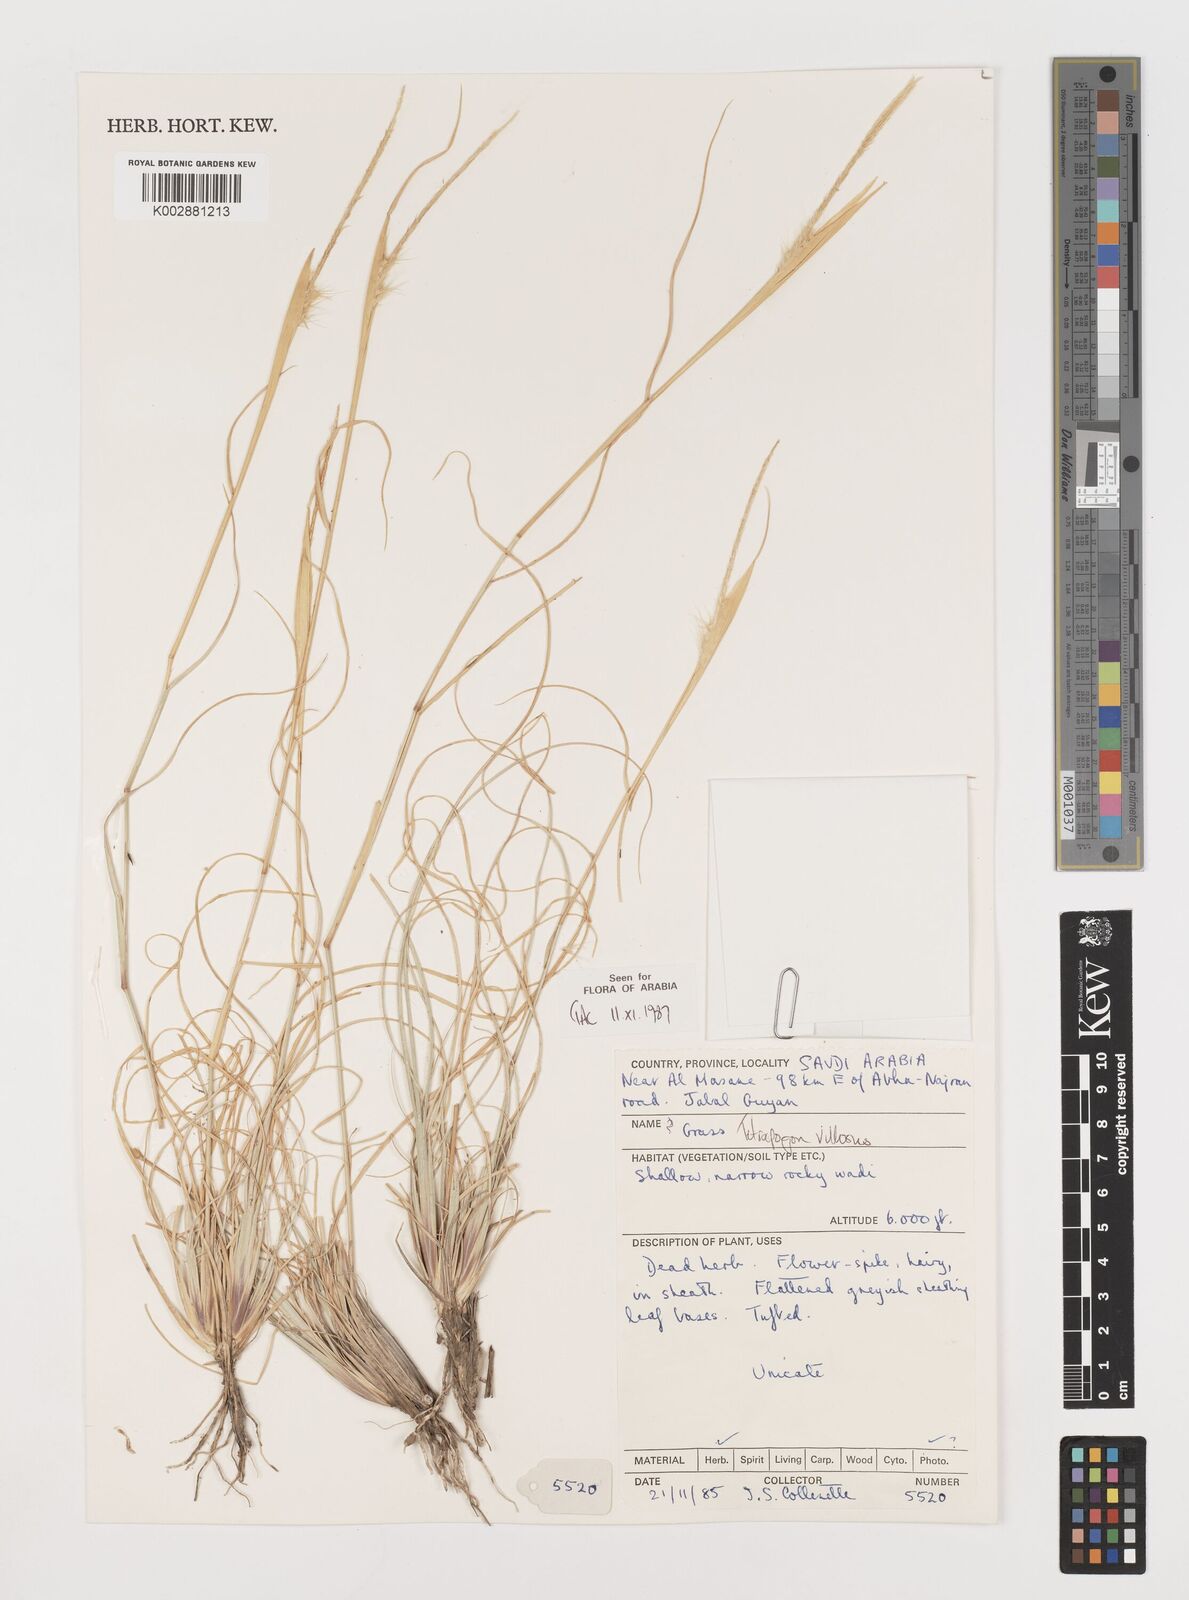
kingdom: Plantae
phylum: Tracheophyta
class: Liliopsida
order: Poales
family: Poaceae
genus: Tetrapogon
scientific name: Tetrapogon villosus
